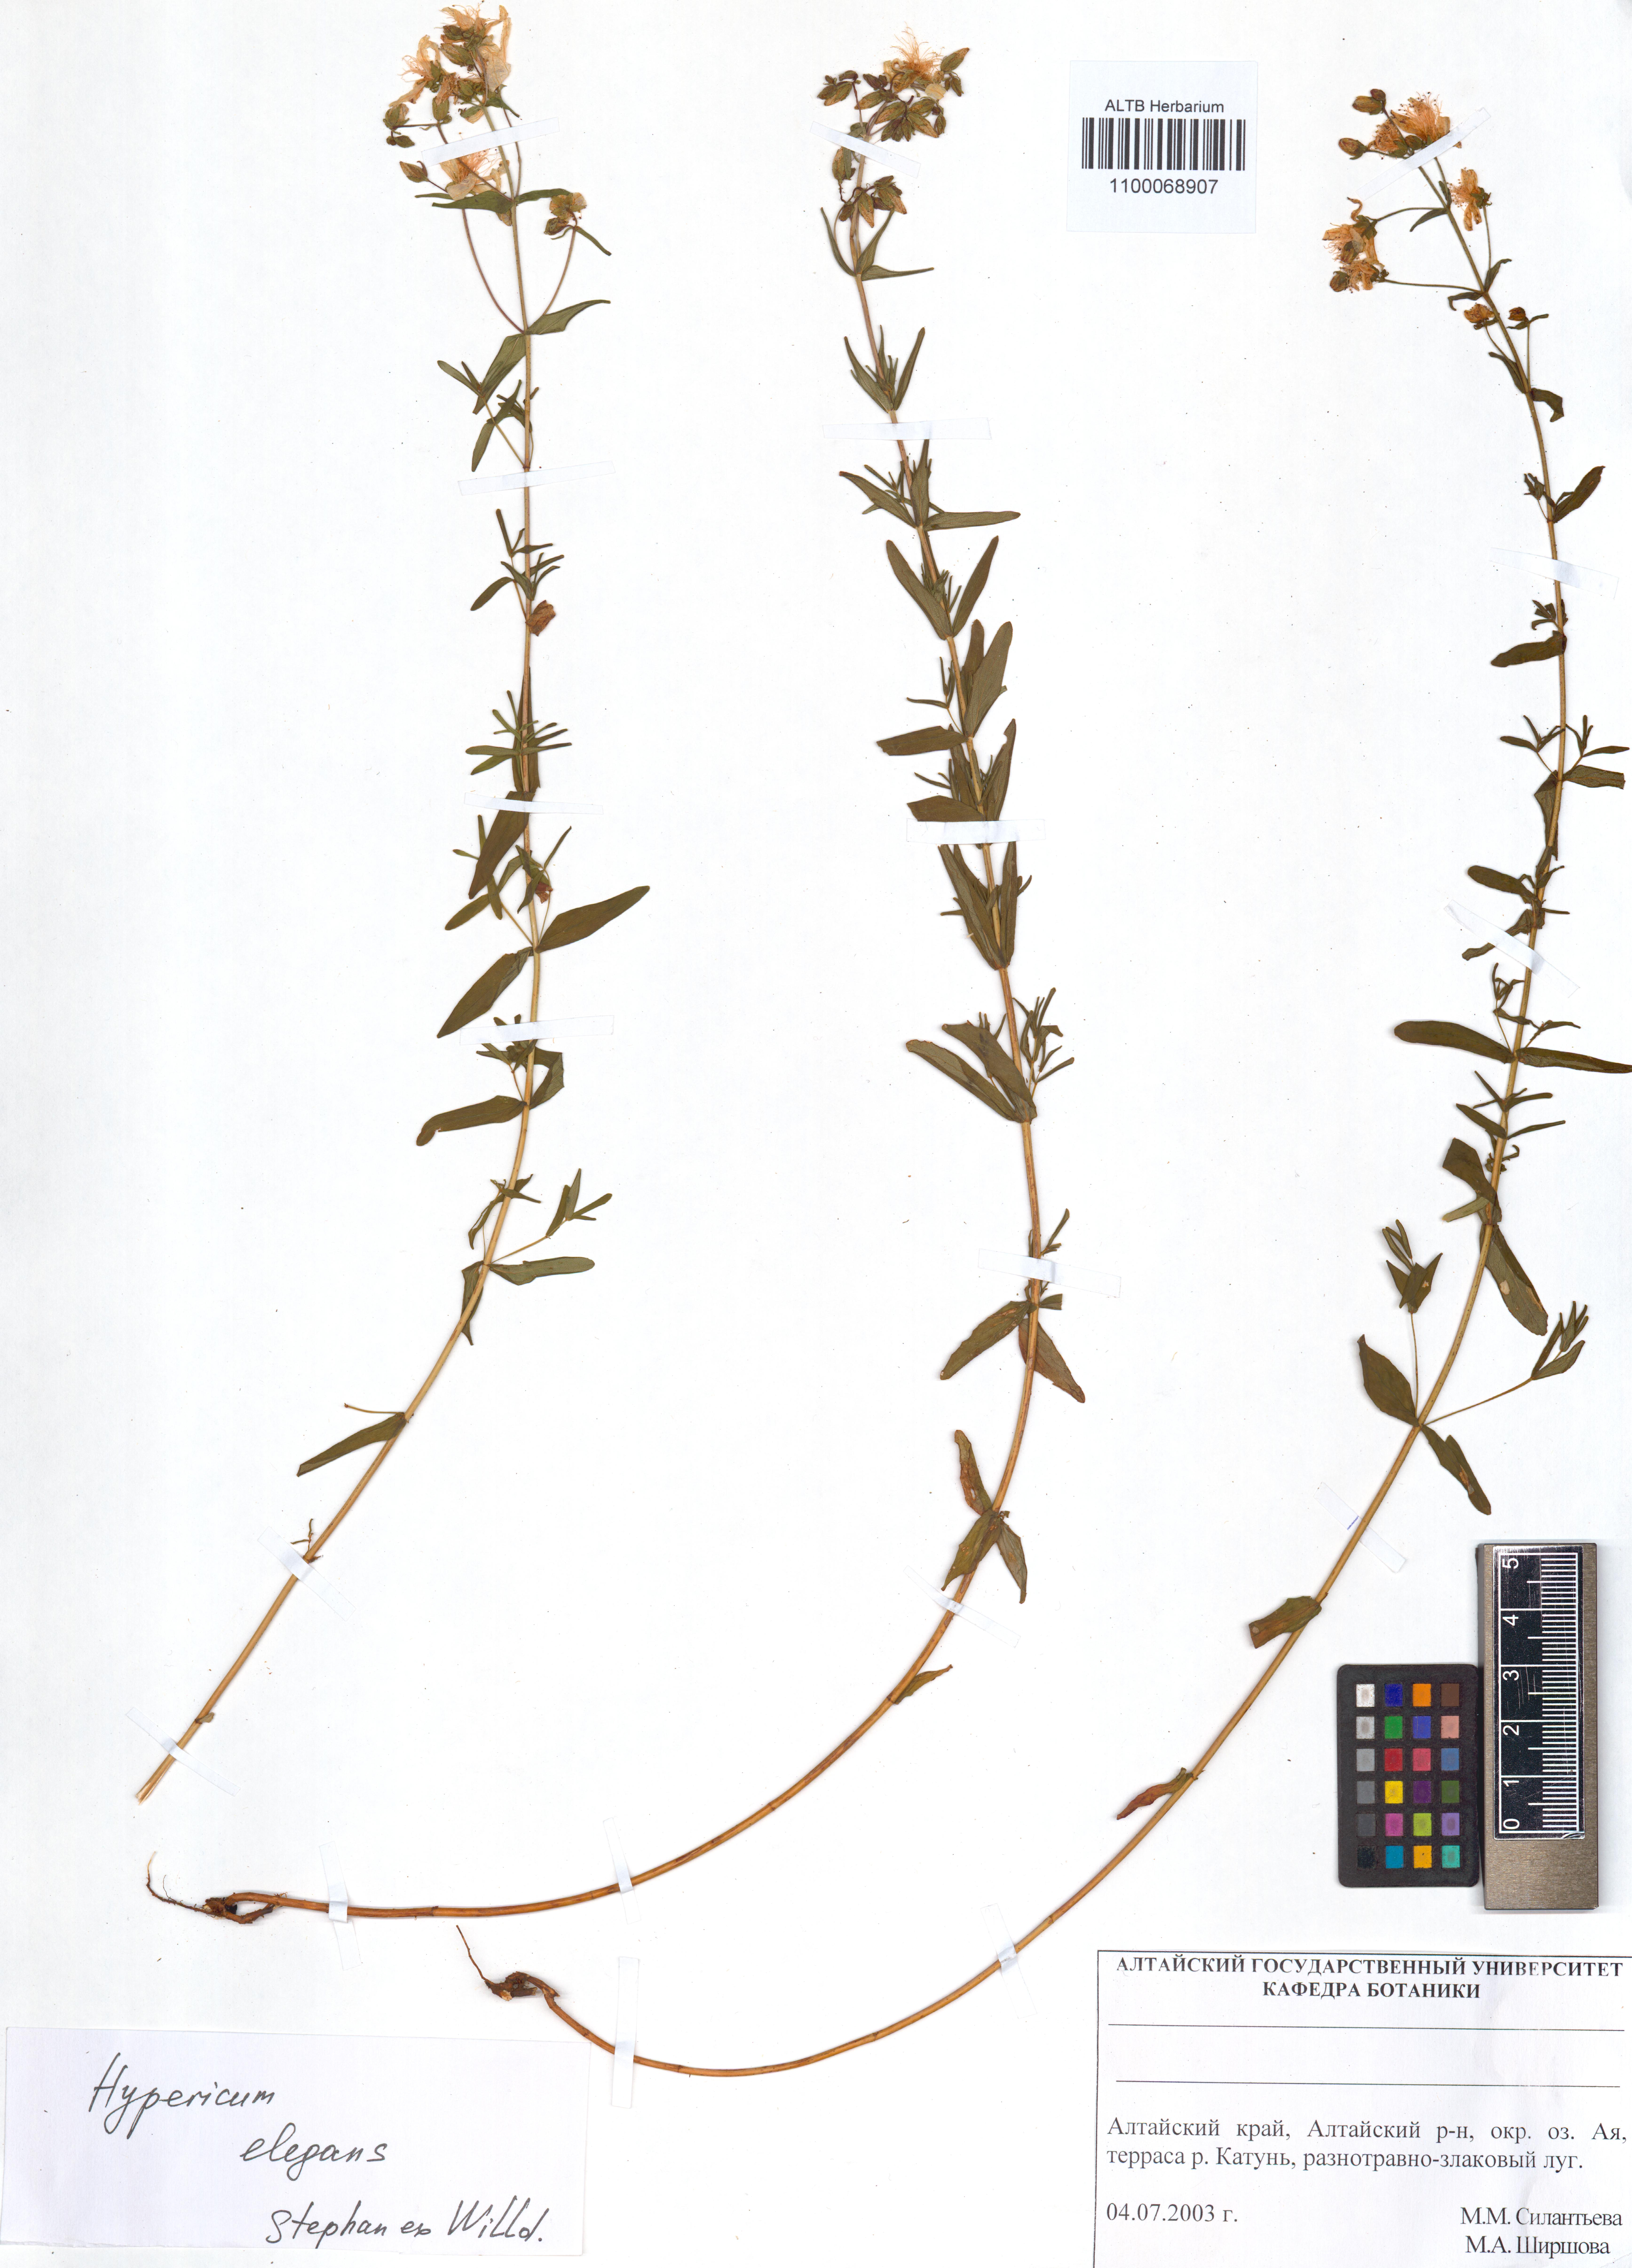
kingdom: Plantae
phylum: Tracheophyta
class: Magnoliopsida
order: Malpighiales
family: Hypericaceae
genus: Hypericum
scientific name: Hypericum elegans
